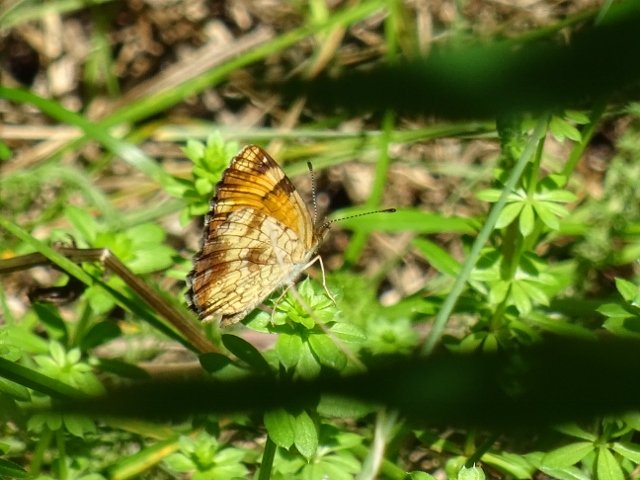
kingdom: Animalia
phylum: Arthropoda
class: Insecta
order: Lepidoptera
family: Nymphalidae
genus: Phyciodes
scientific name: Phyciodes tharos
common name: Pearl Crescent
